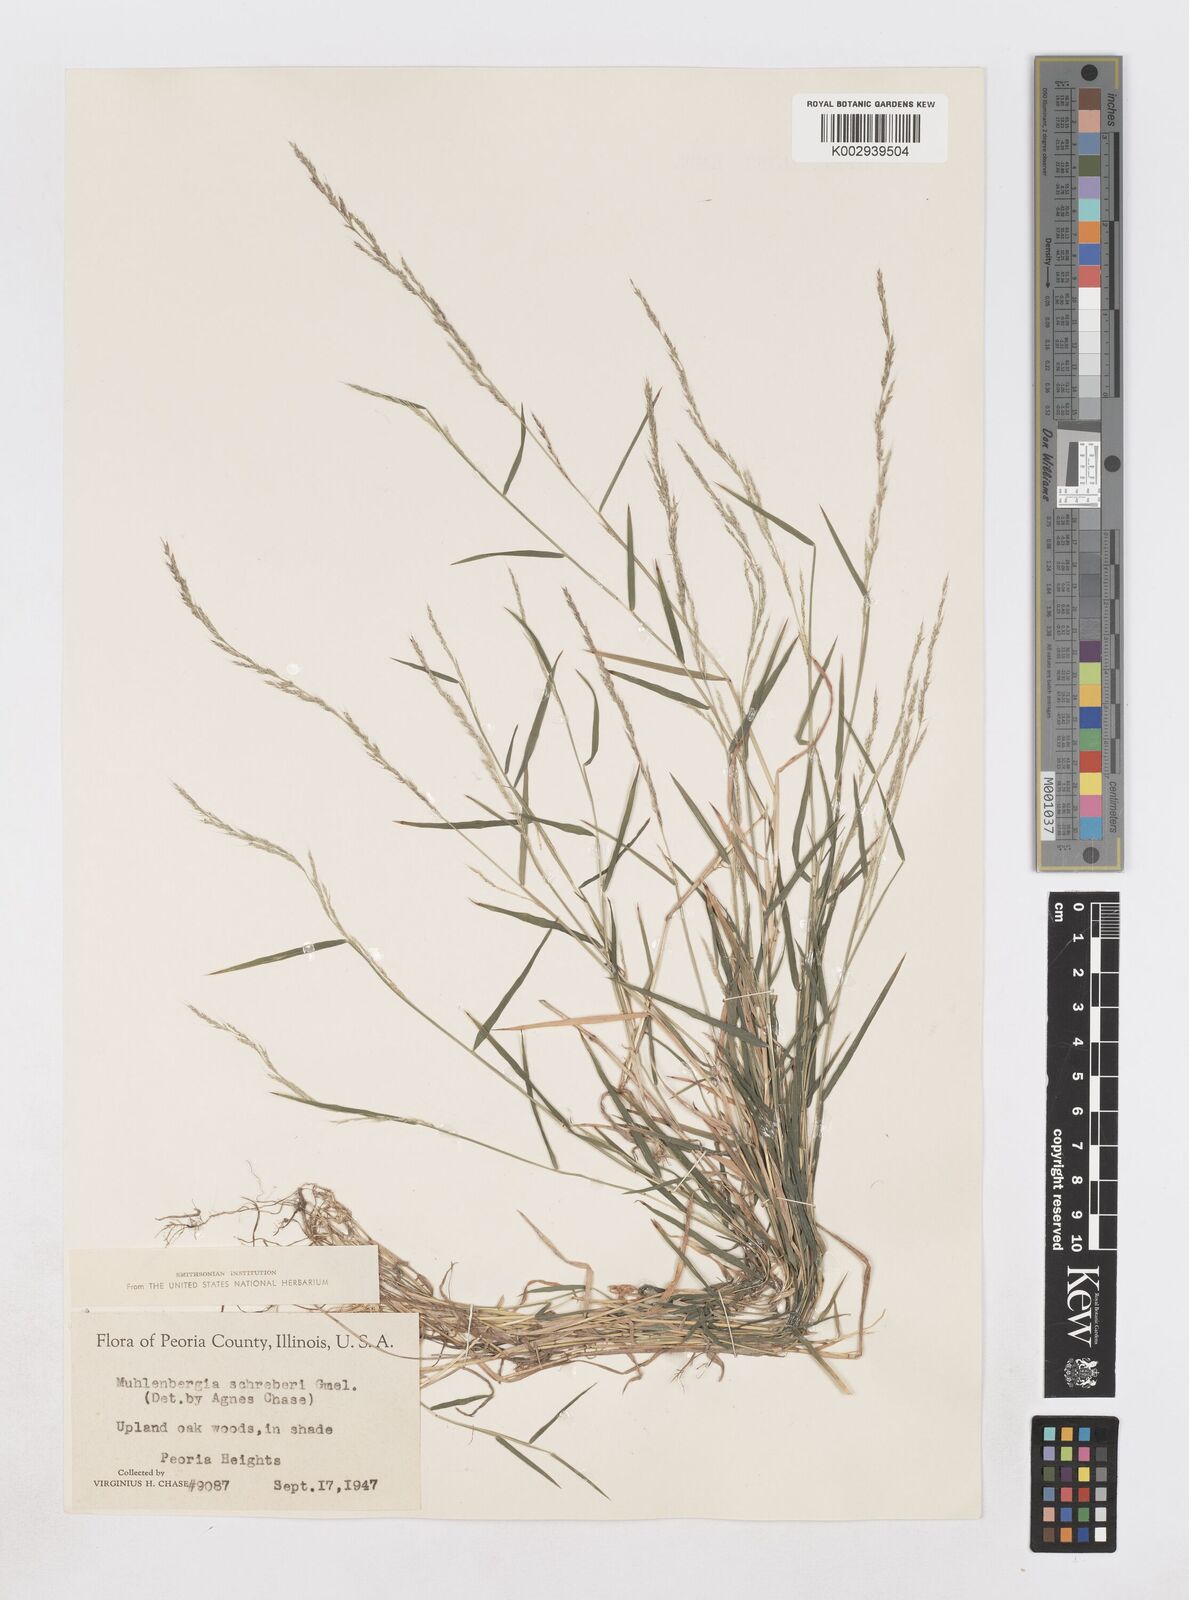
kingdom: Plantae
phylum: Tracheophyta
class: Liliopsida
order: Poales
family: Poaceae
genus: Muhlenbergia
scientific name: Muhlenbergia schreberi
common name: Nimblewill
